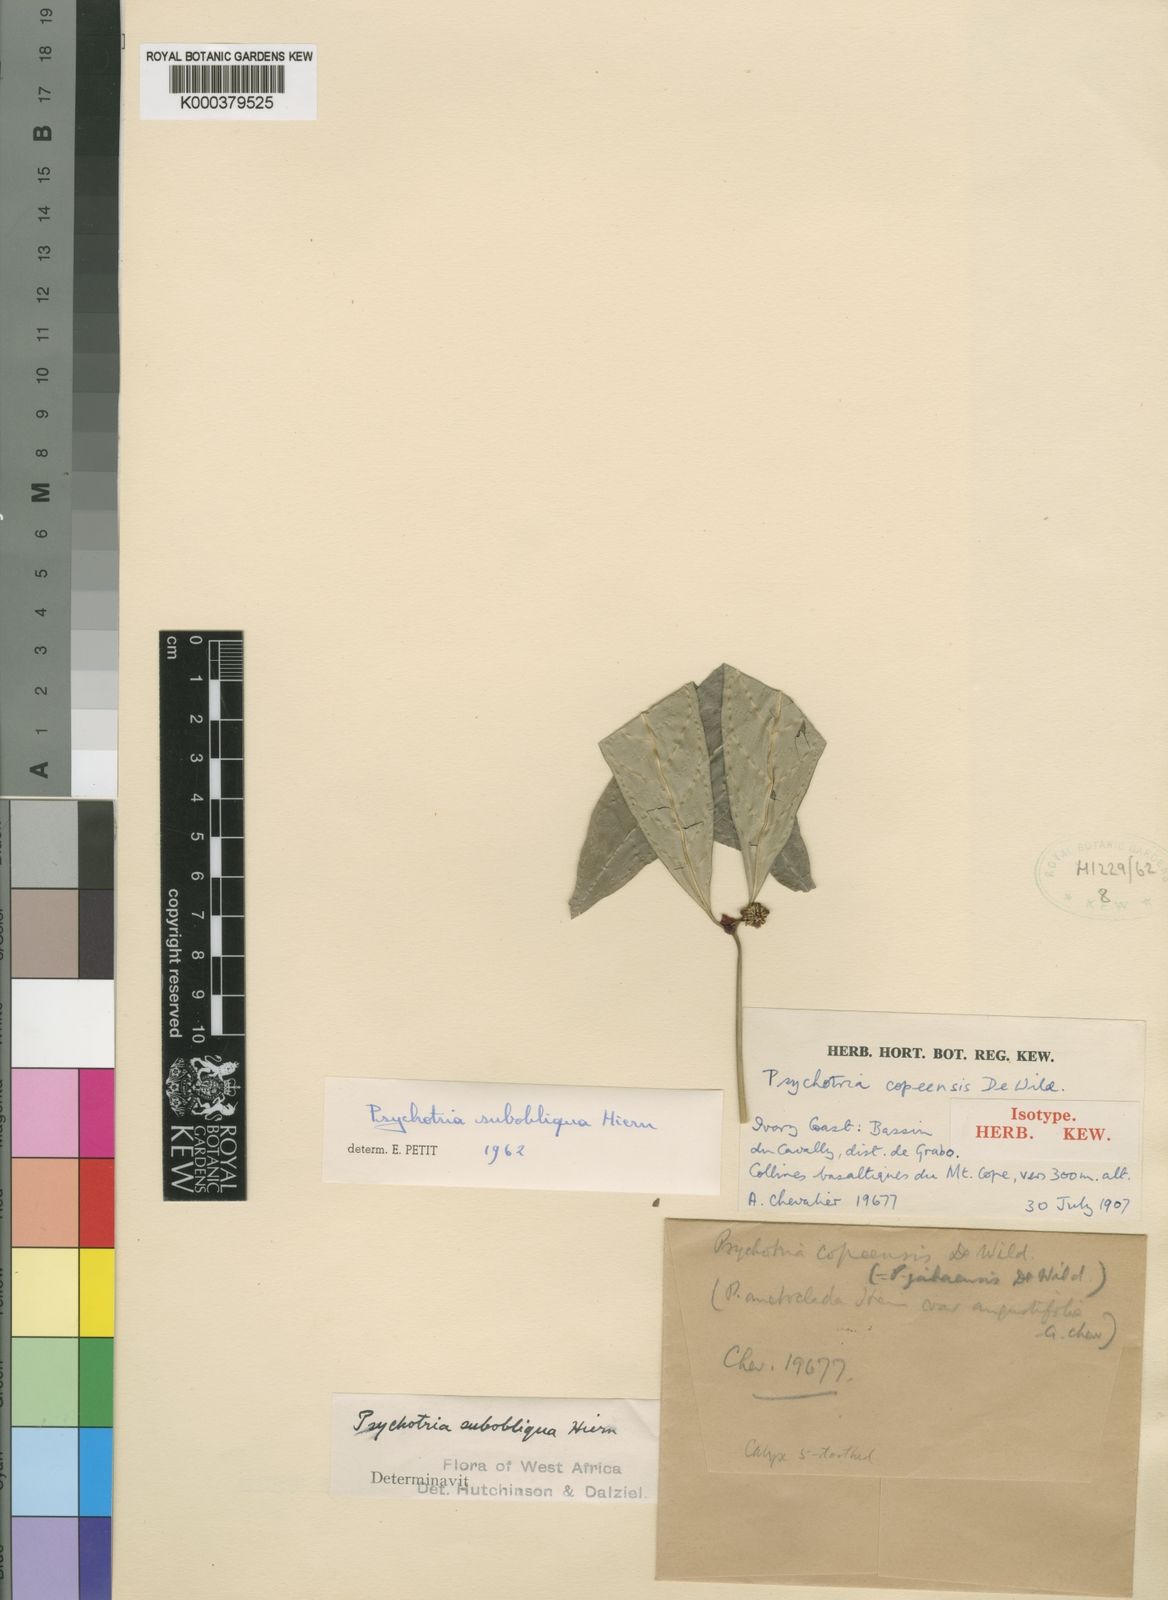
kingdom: Plantae
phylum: Tracheophyta
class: Magnoliopsida
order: Gentianales
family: Rubiaceae
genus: Psychotria
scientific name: Psychotria subobliqua
